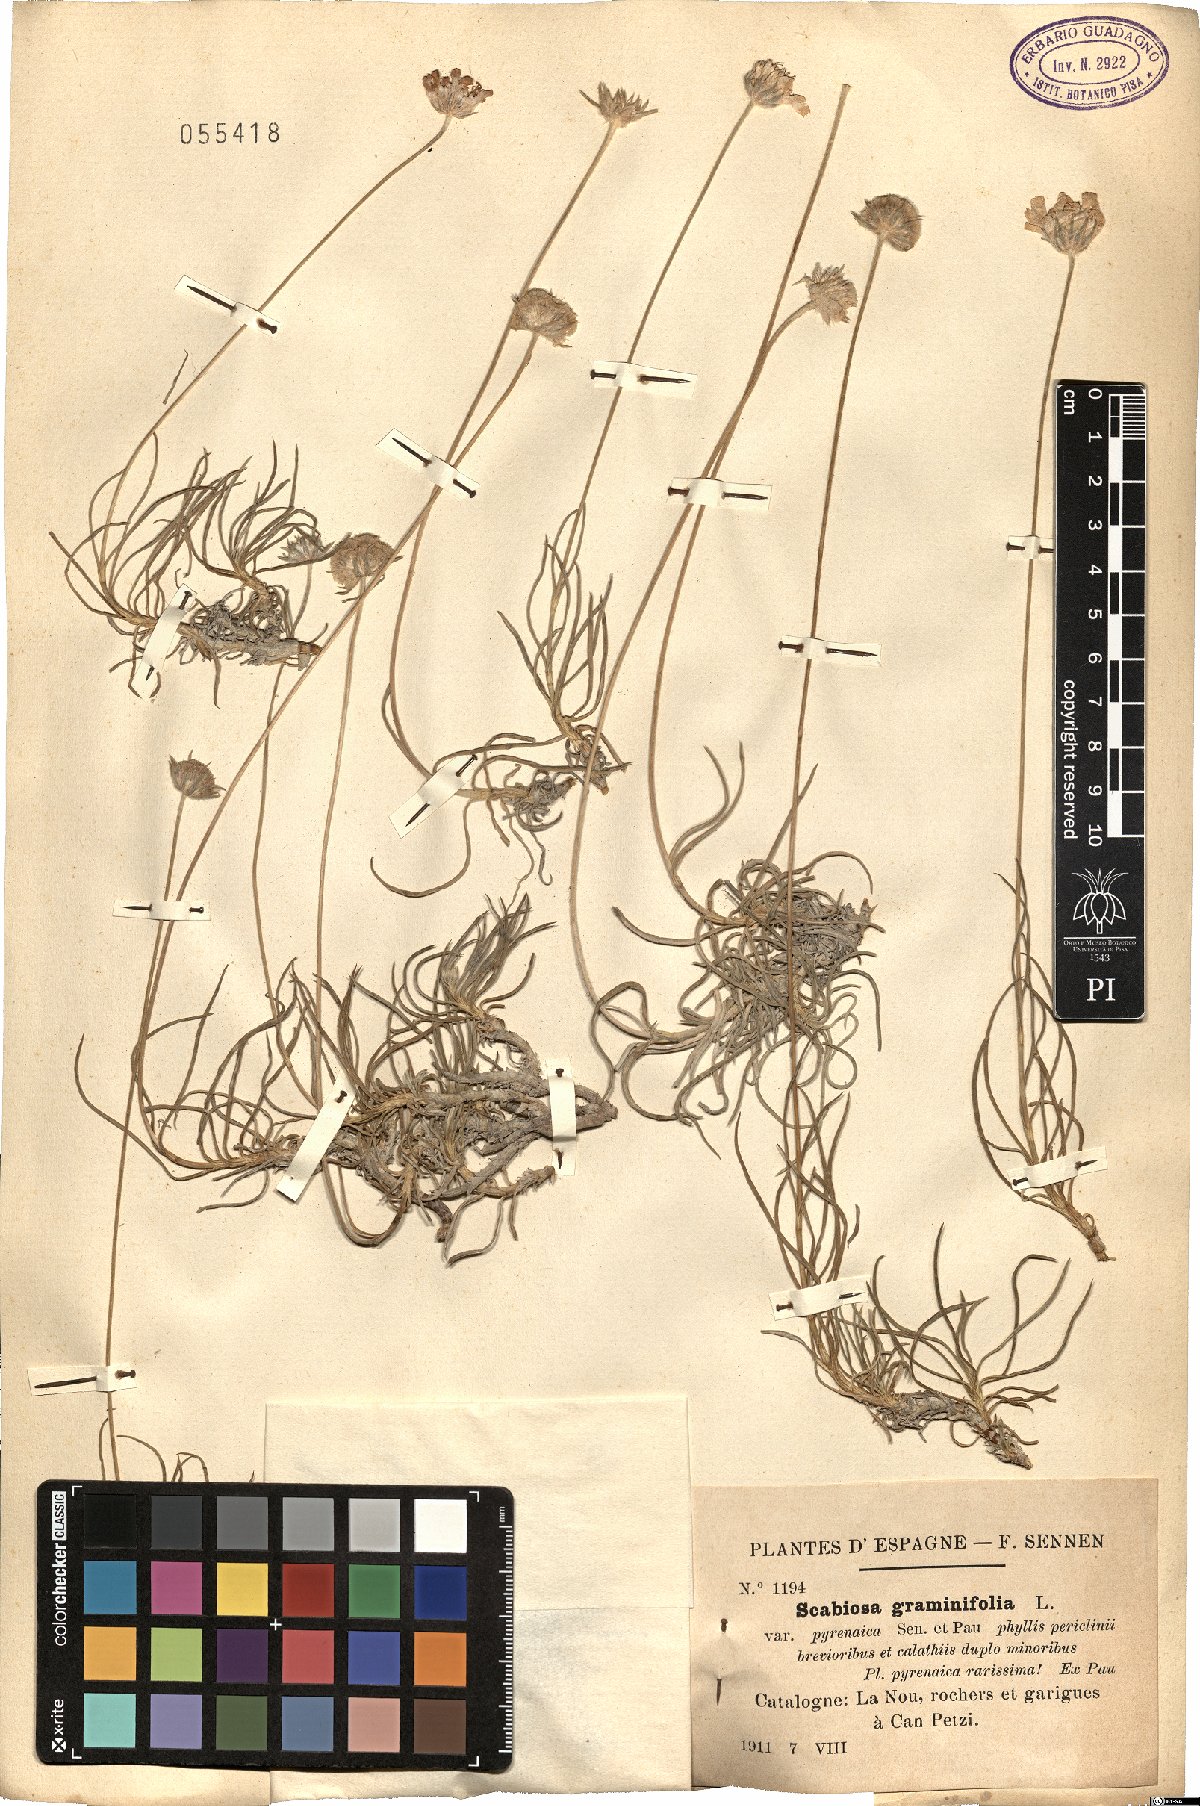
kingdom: Plantae
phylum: Tracheophyta
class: Magnoliopsida
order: Dipsacales
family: Caprifoliaceae
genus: Lomelosia
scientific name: Lomelosia graminifolia
